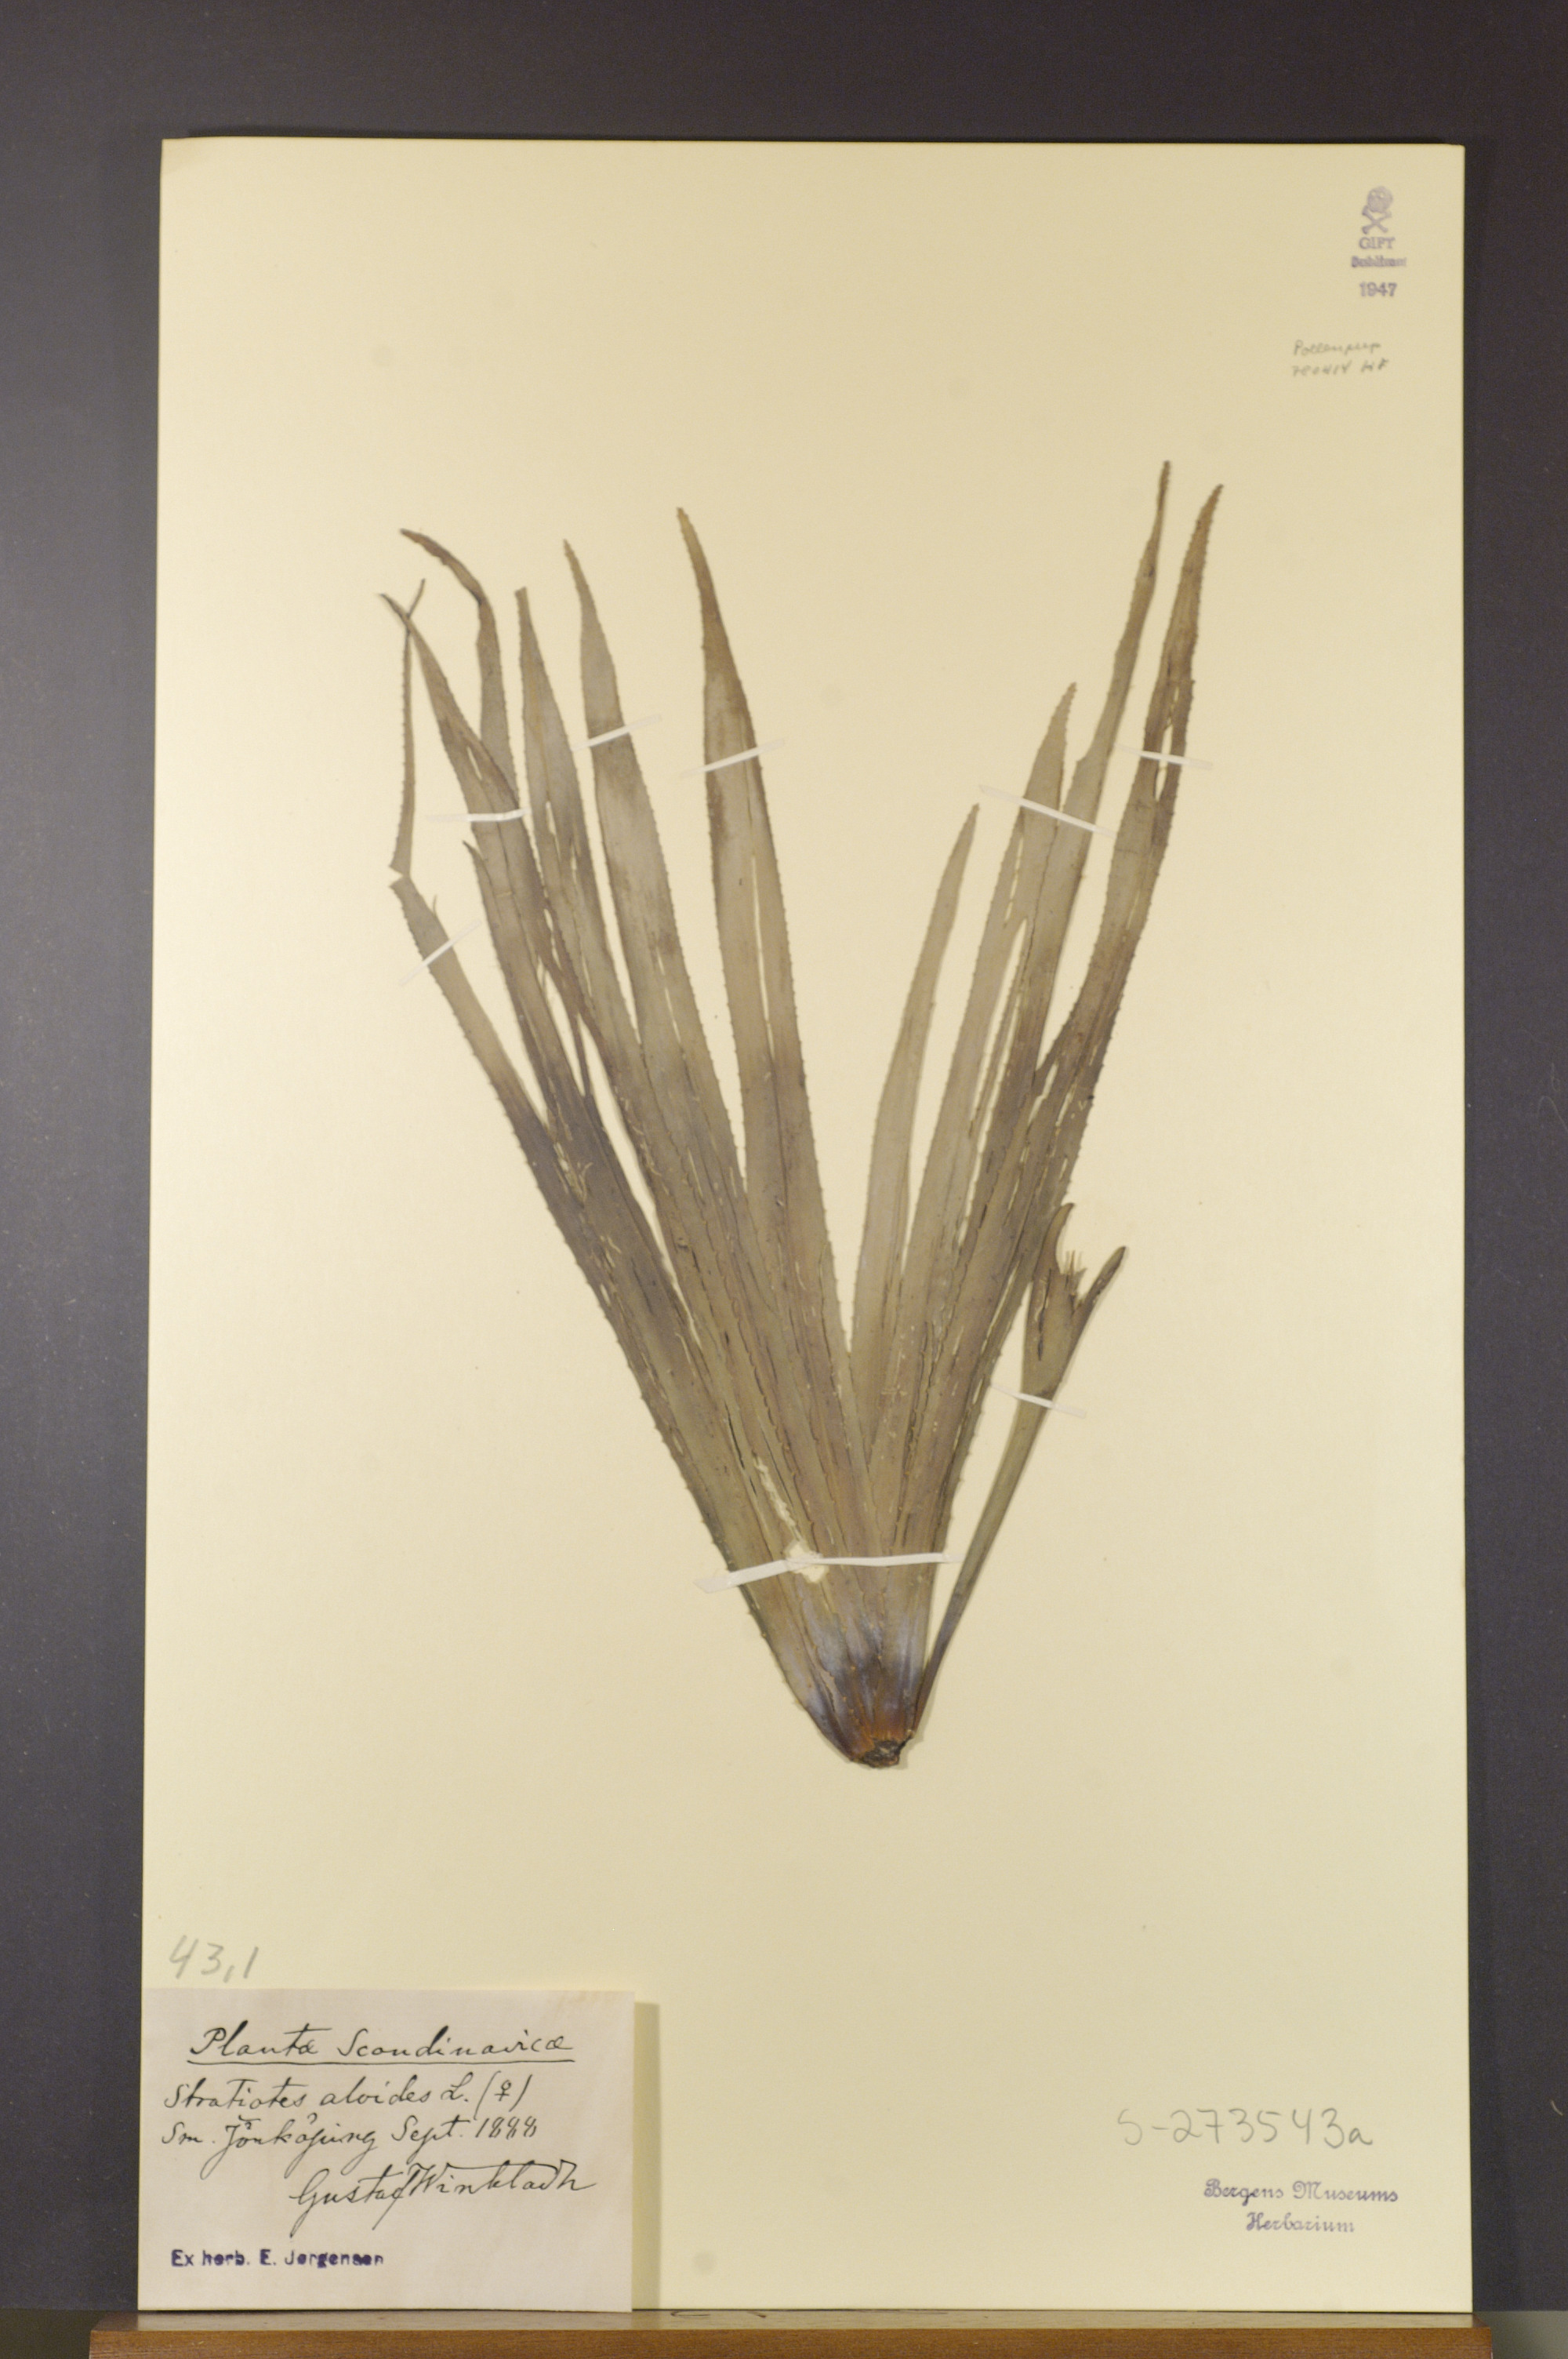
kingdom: Plantae
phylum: Tracheophyta
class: Liliopsida
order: Alismatales
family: Hydrocharitaceae
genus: Stratiotes
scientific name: Stratiotes aloides
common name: Water-soldier
